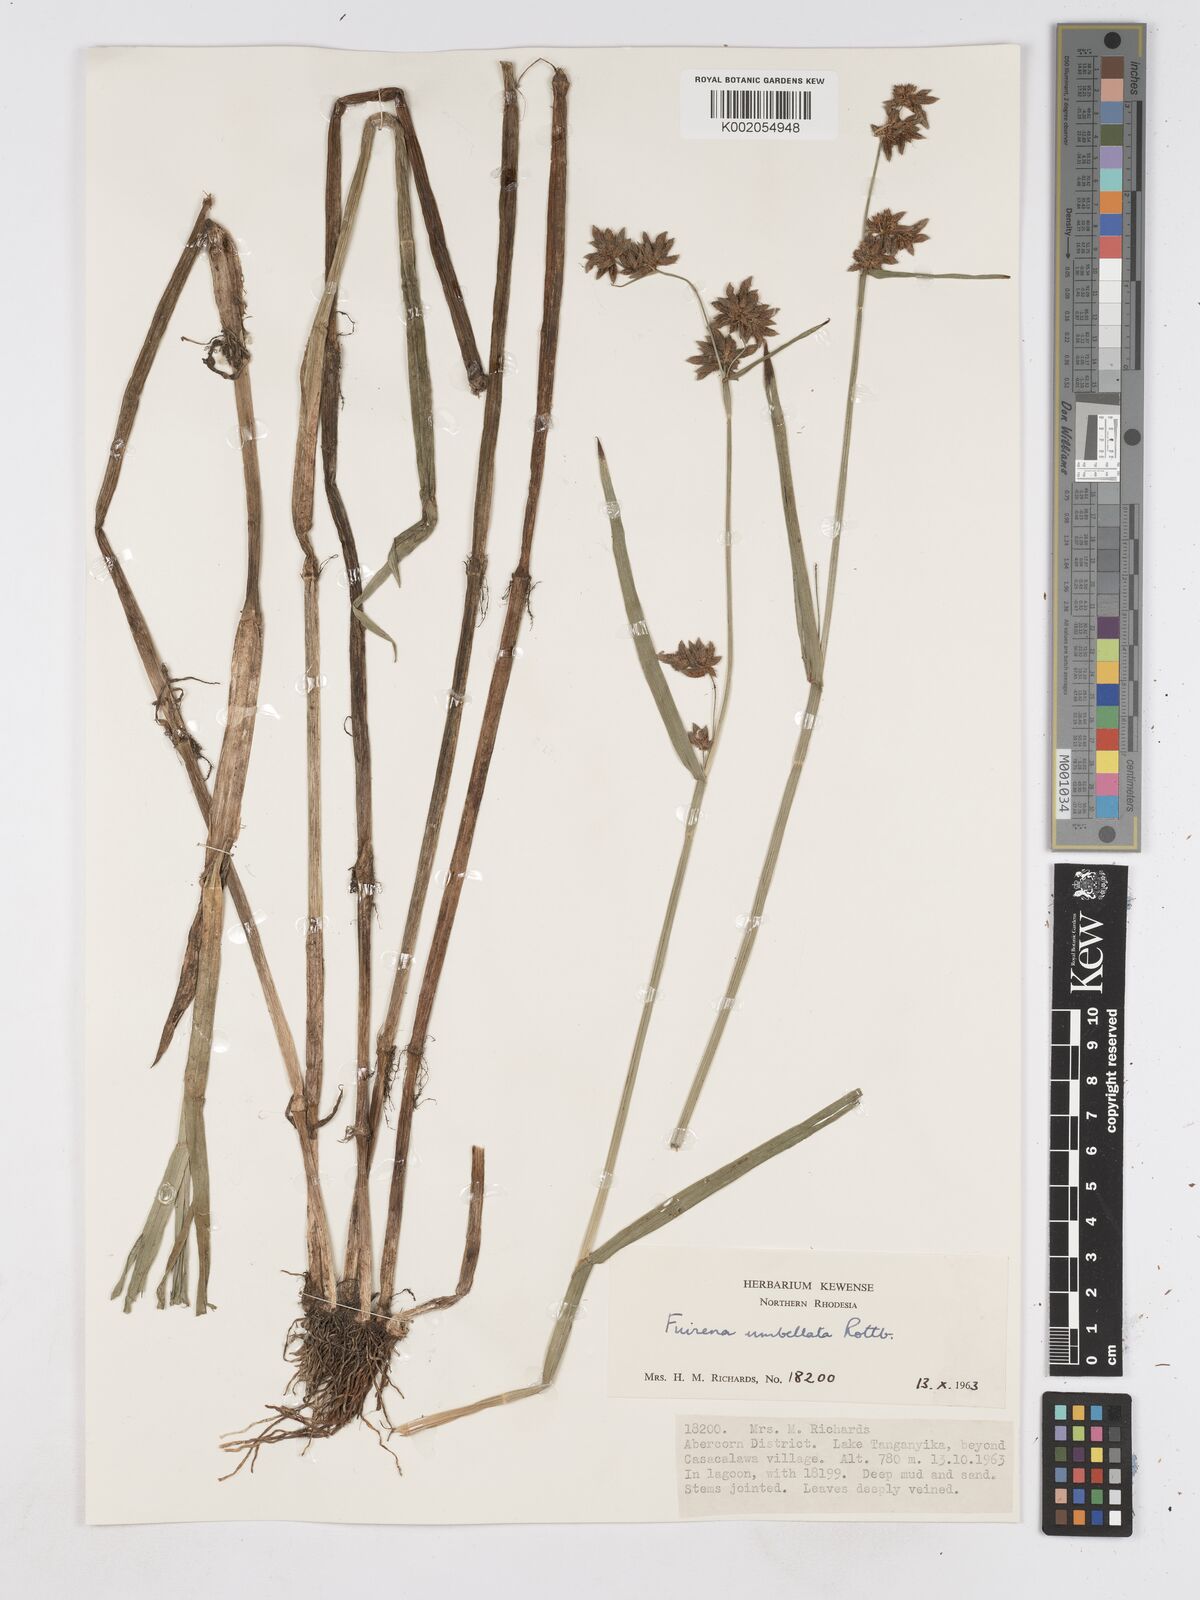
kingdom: Plantae
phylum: Tracheophyta
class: Liliopsida
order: Poales
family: Cyperaceae
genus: Fuirena
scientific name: Fuirena umbellata
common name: Yefen
